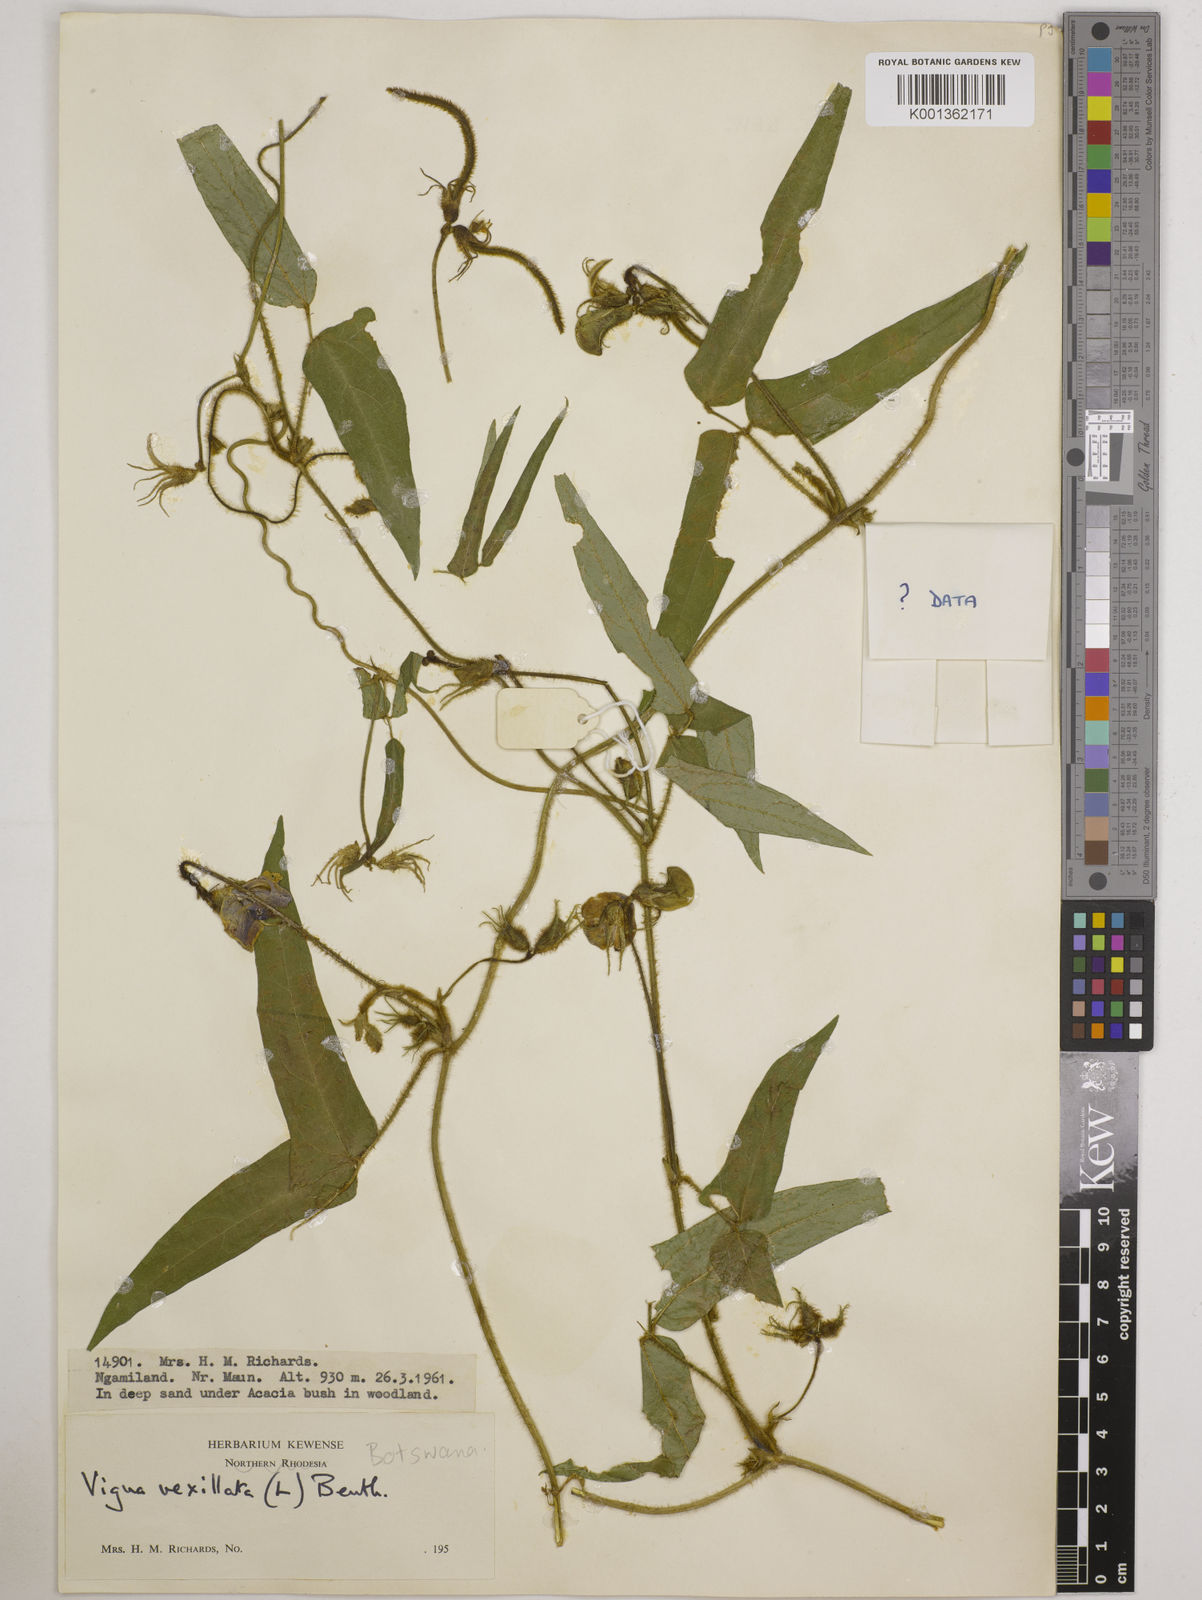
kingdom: Plantae
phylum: Tracheophyta
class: Magnoliopsida
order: Fabales
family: Fabaceae
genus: Vigna
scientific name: Vigna vexillata
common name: Zombi pea
